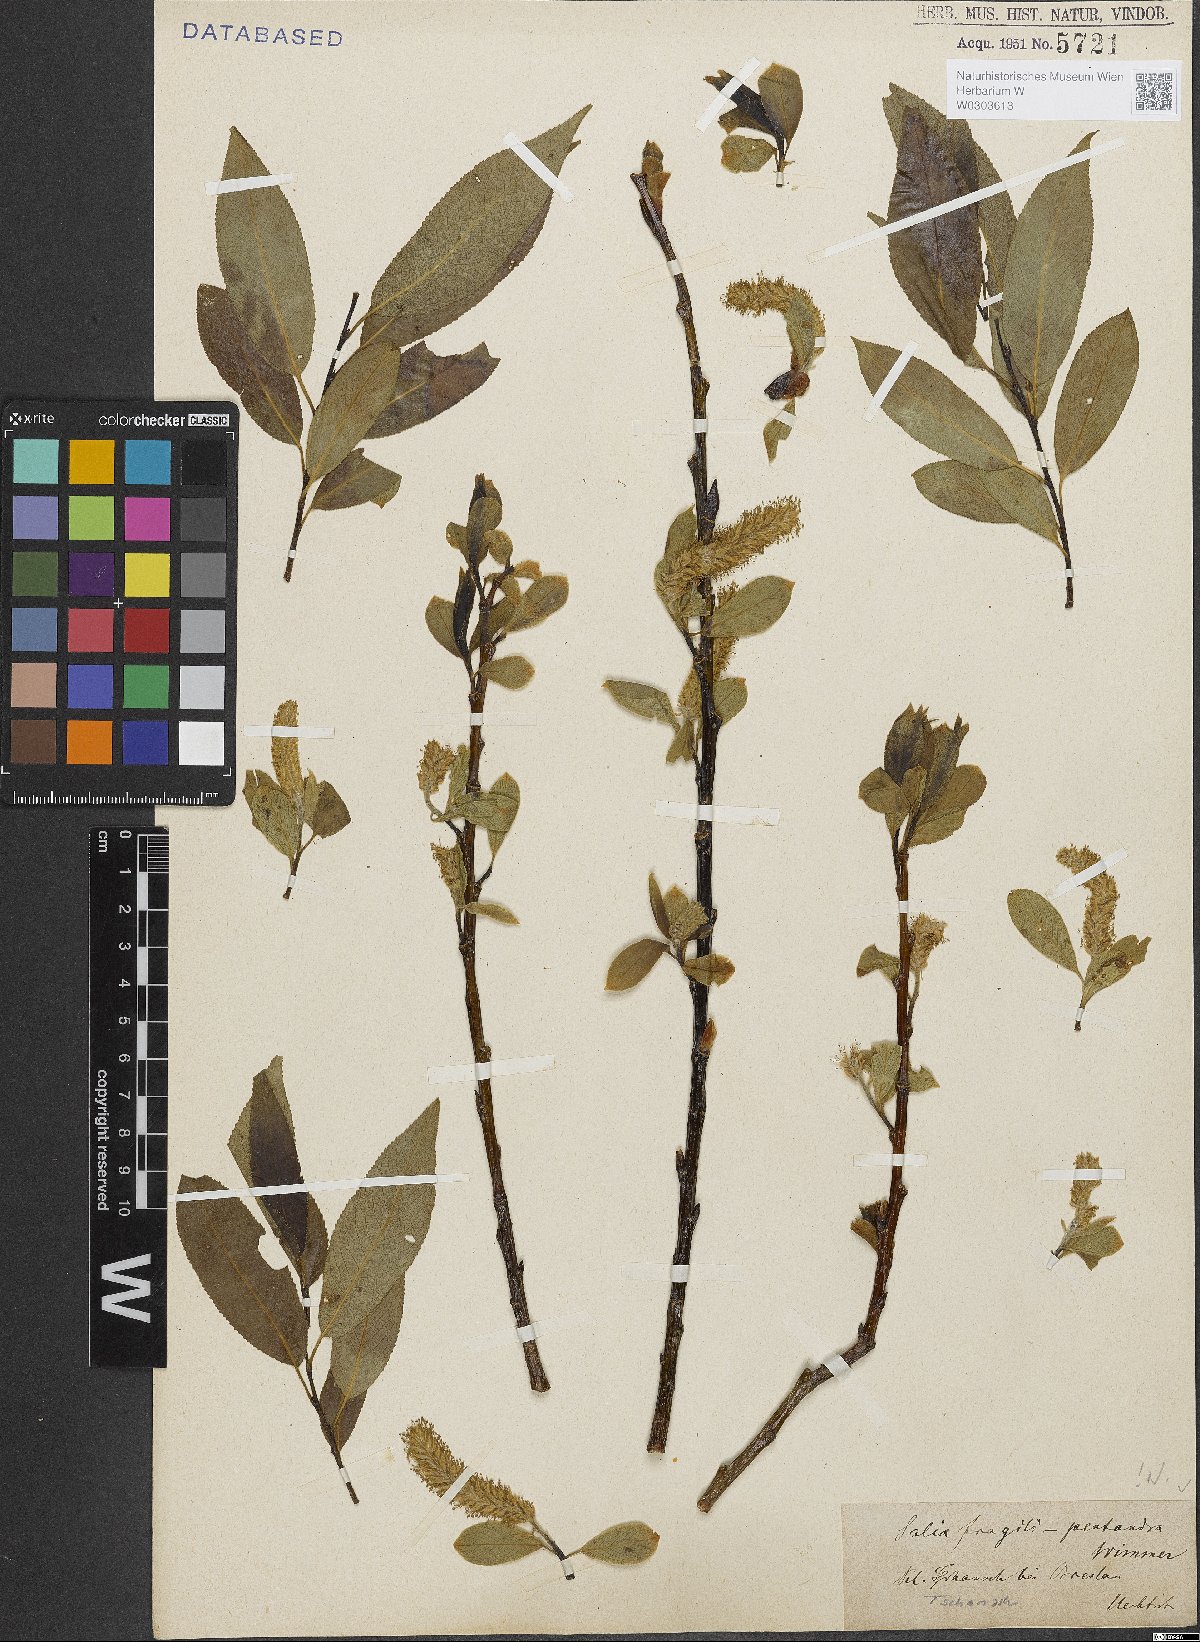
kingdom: Plantae
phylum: Tracheophyta
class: Magnoliopsida
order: Malpighiales
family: Salicaceae
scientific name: Salicaceae
